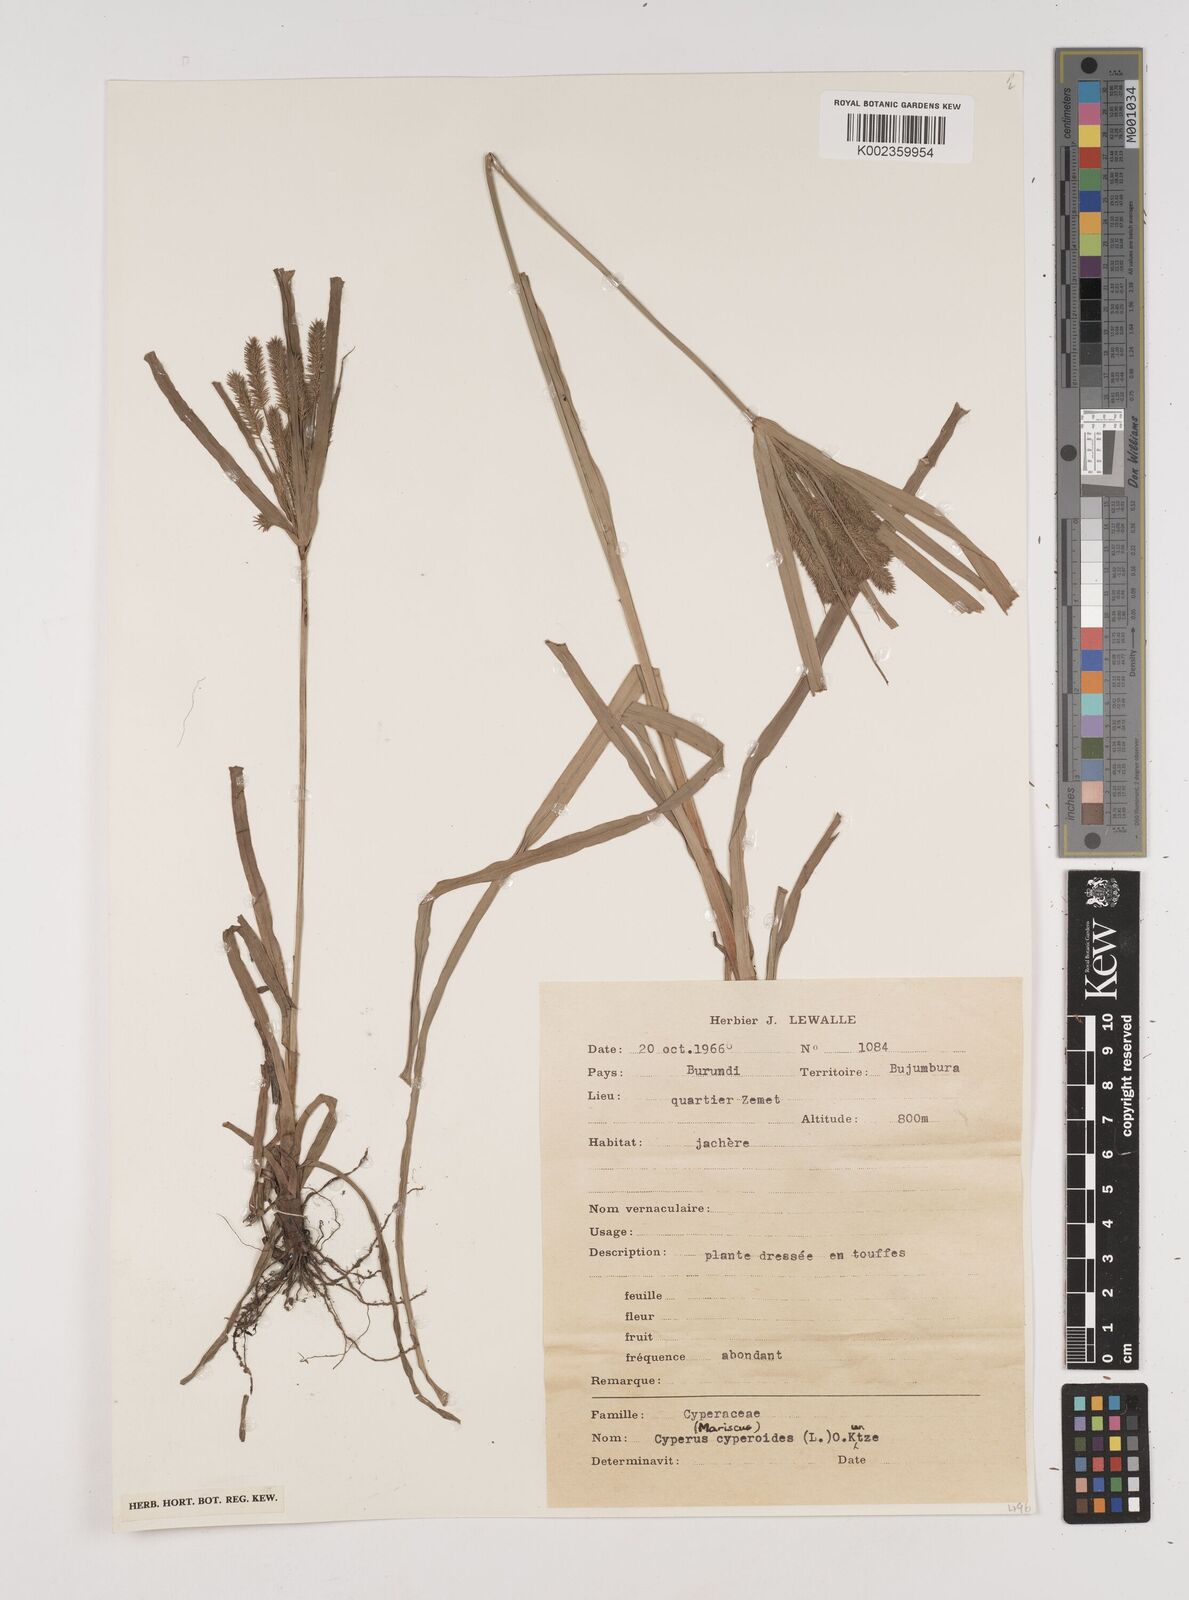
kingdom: Plantae
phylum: Tracheophyta
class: Liliopsida
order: Poales
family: Cyperaceae
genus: Cyperus
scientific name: Cyperus cyperoides
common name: Pacific island flat sedge
